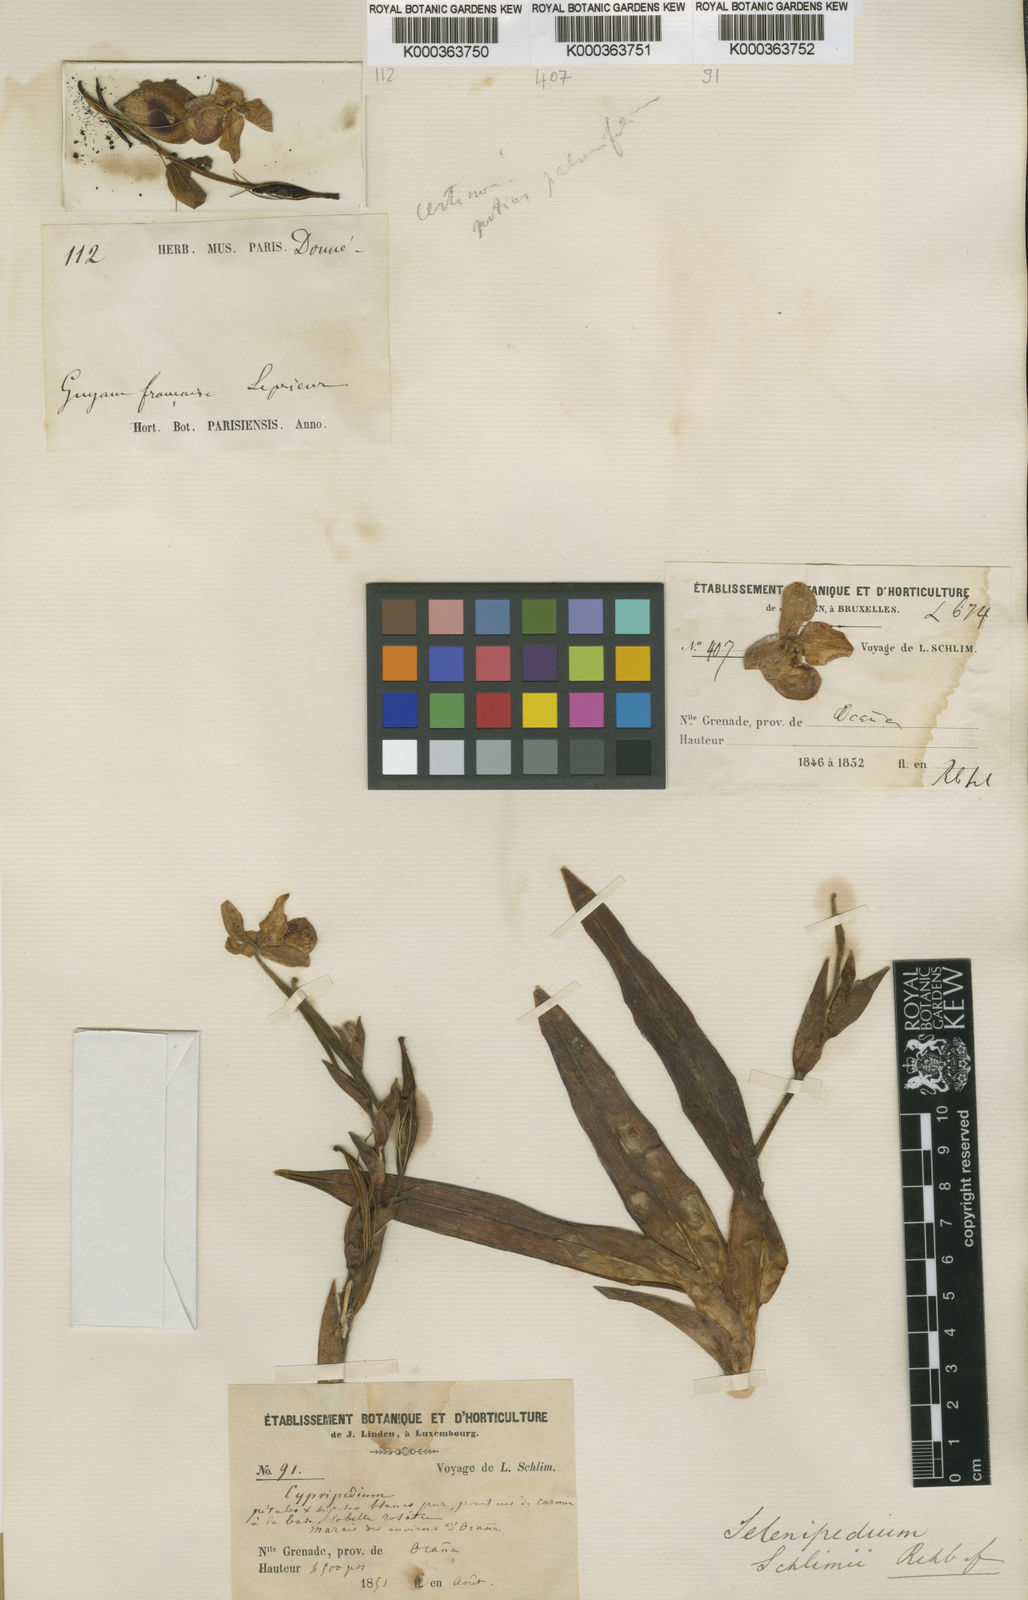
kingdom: Plantae
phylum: Tracheophyta
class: Liliopsida
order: Asparagales
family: Orchidaceae
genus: Phragmipedium
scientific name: Phragmipedium schlimii
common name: Schlimm's phragmipedium
